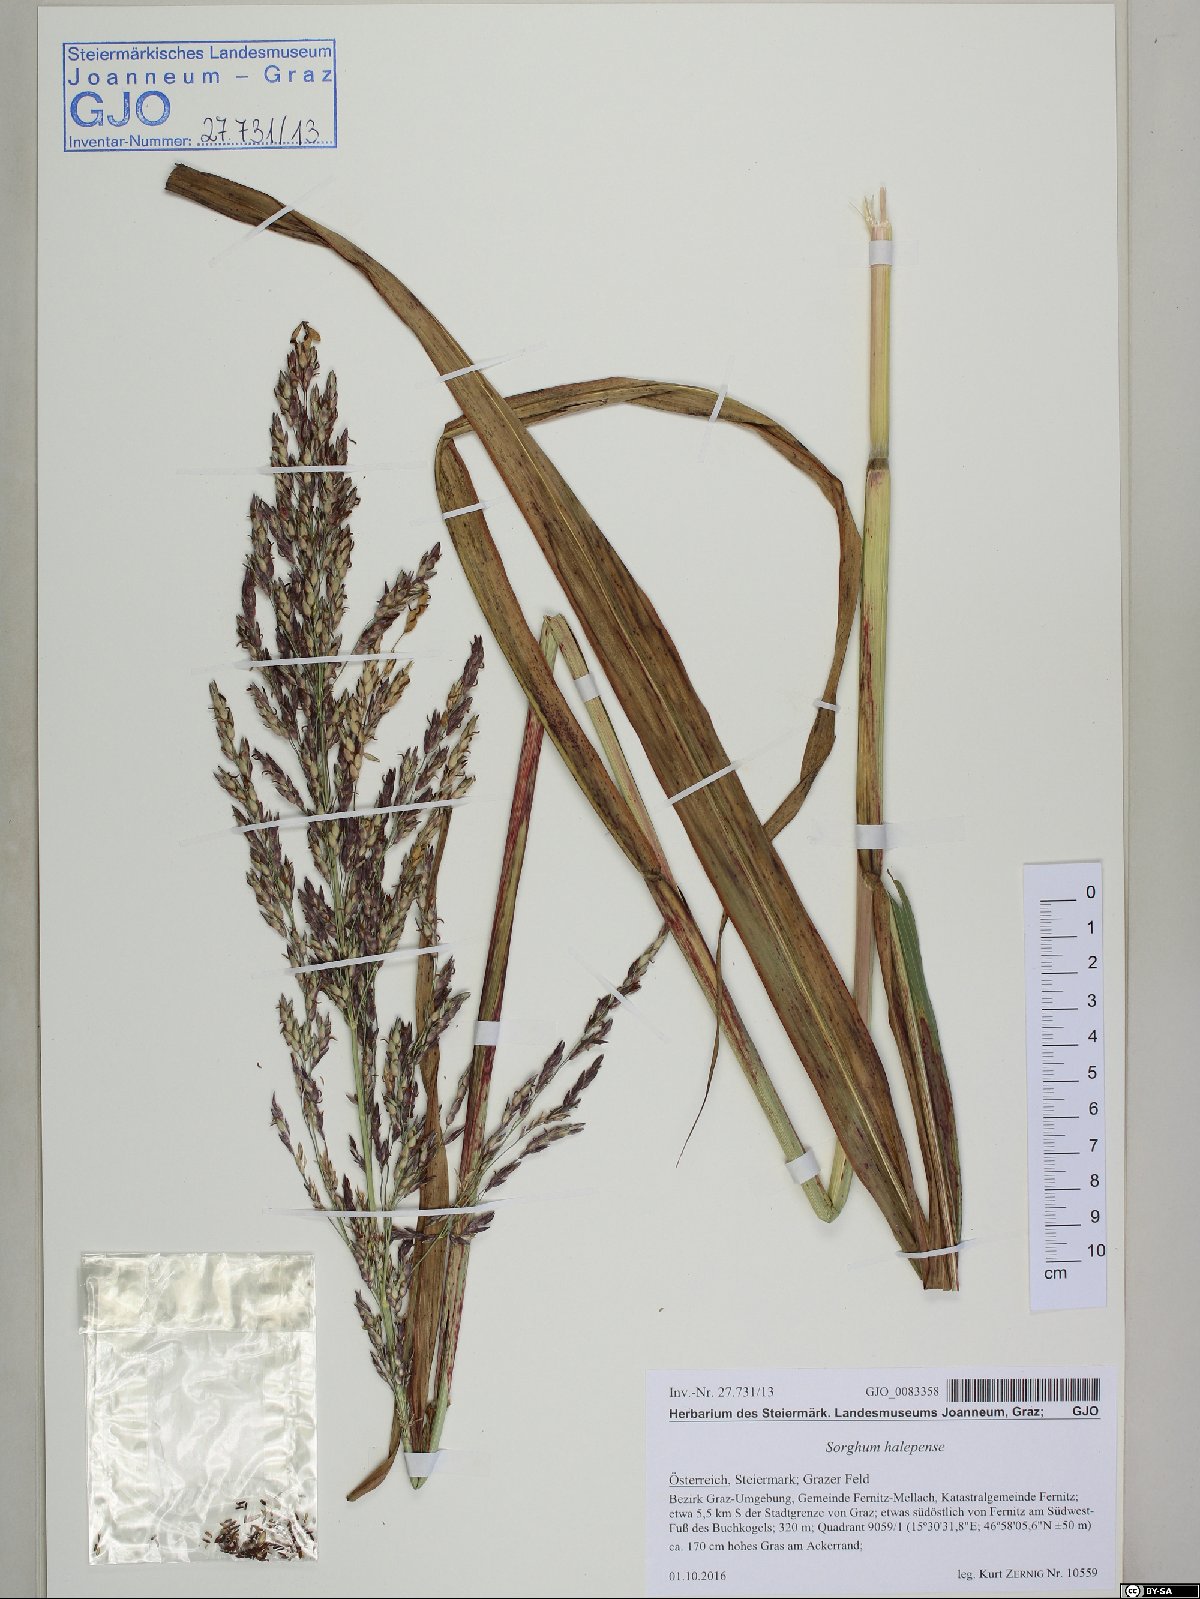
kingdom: Plantae
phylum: Tracheophyta
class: Liliopsida
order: Poales
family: Poaceae
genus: Sorghum
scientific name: Sorghum halepense
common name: Johnson-grass
